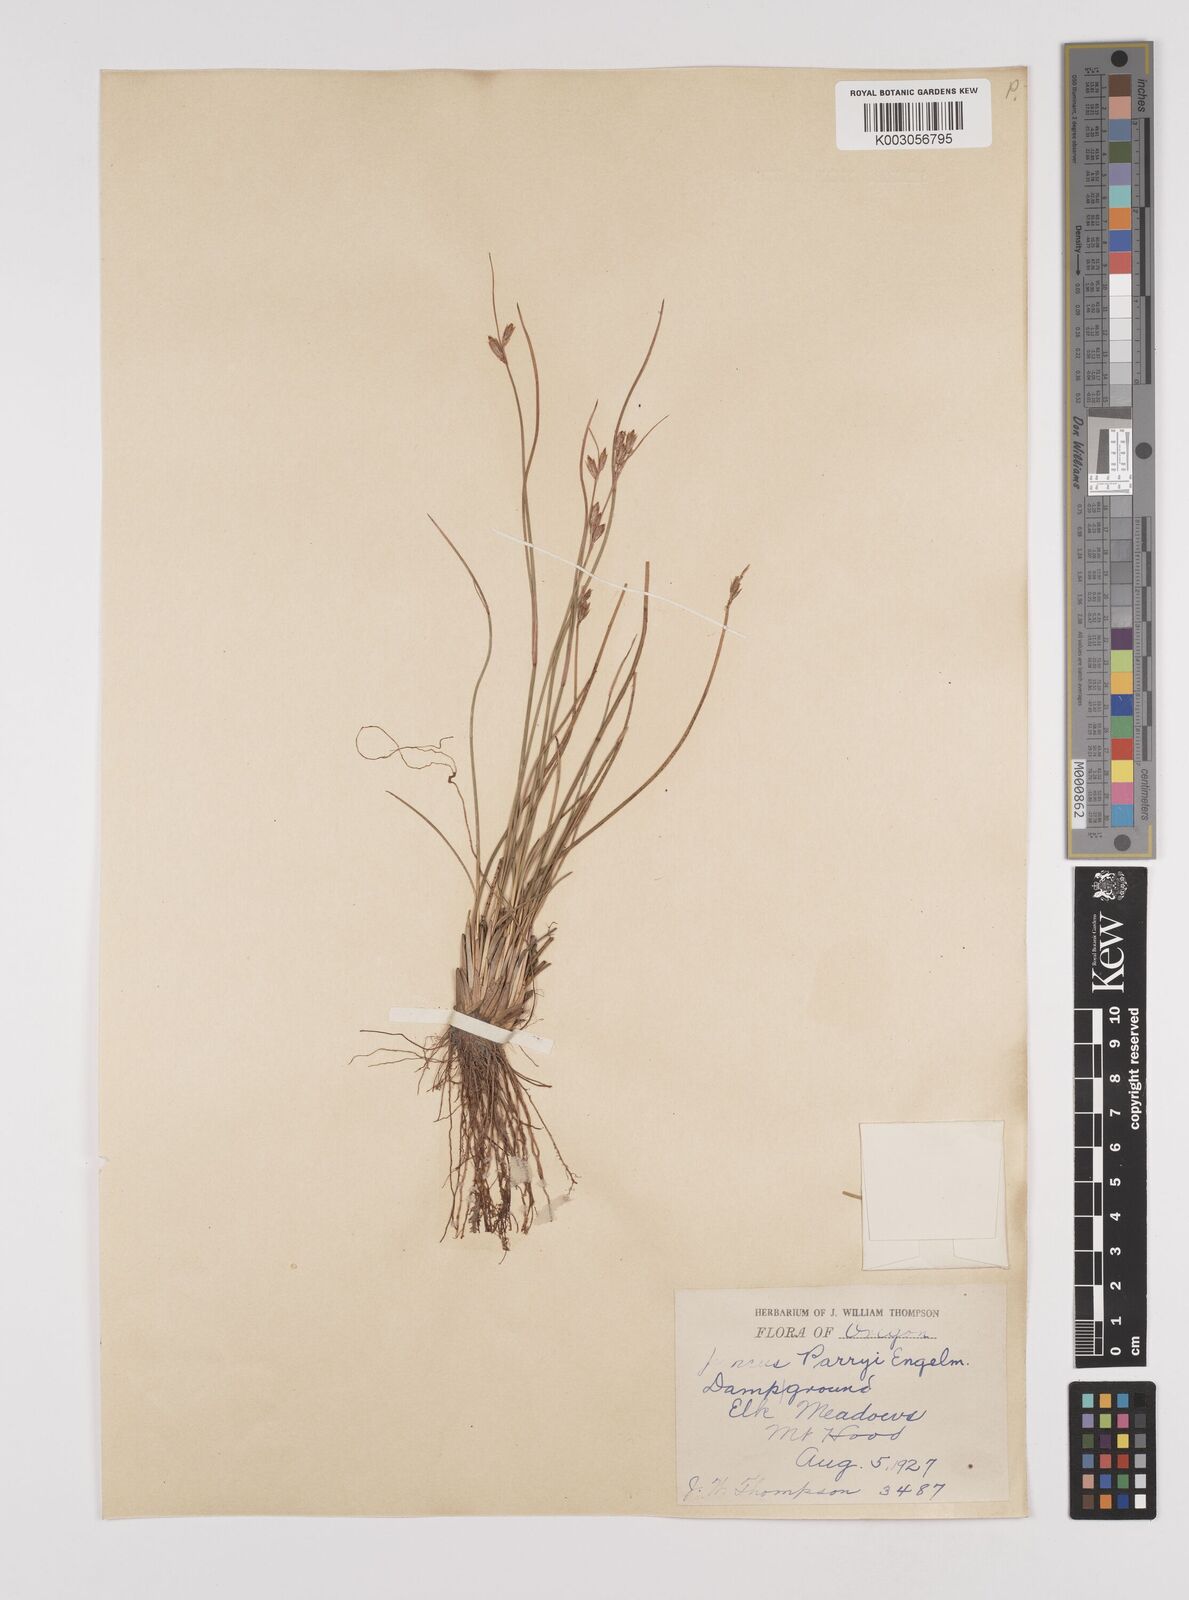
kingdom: Plantae
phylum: Tracheophyta
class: Liliopsida
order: Poales
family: Juncaceae
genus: Juncus
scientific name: Juncus parryi
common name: Parry's rush
